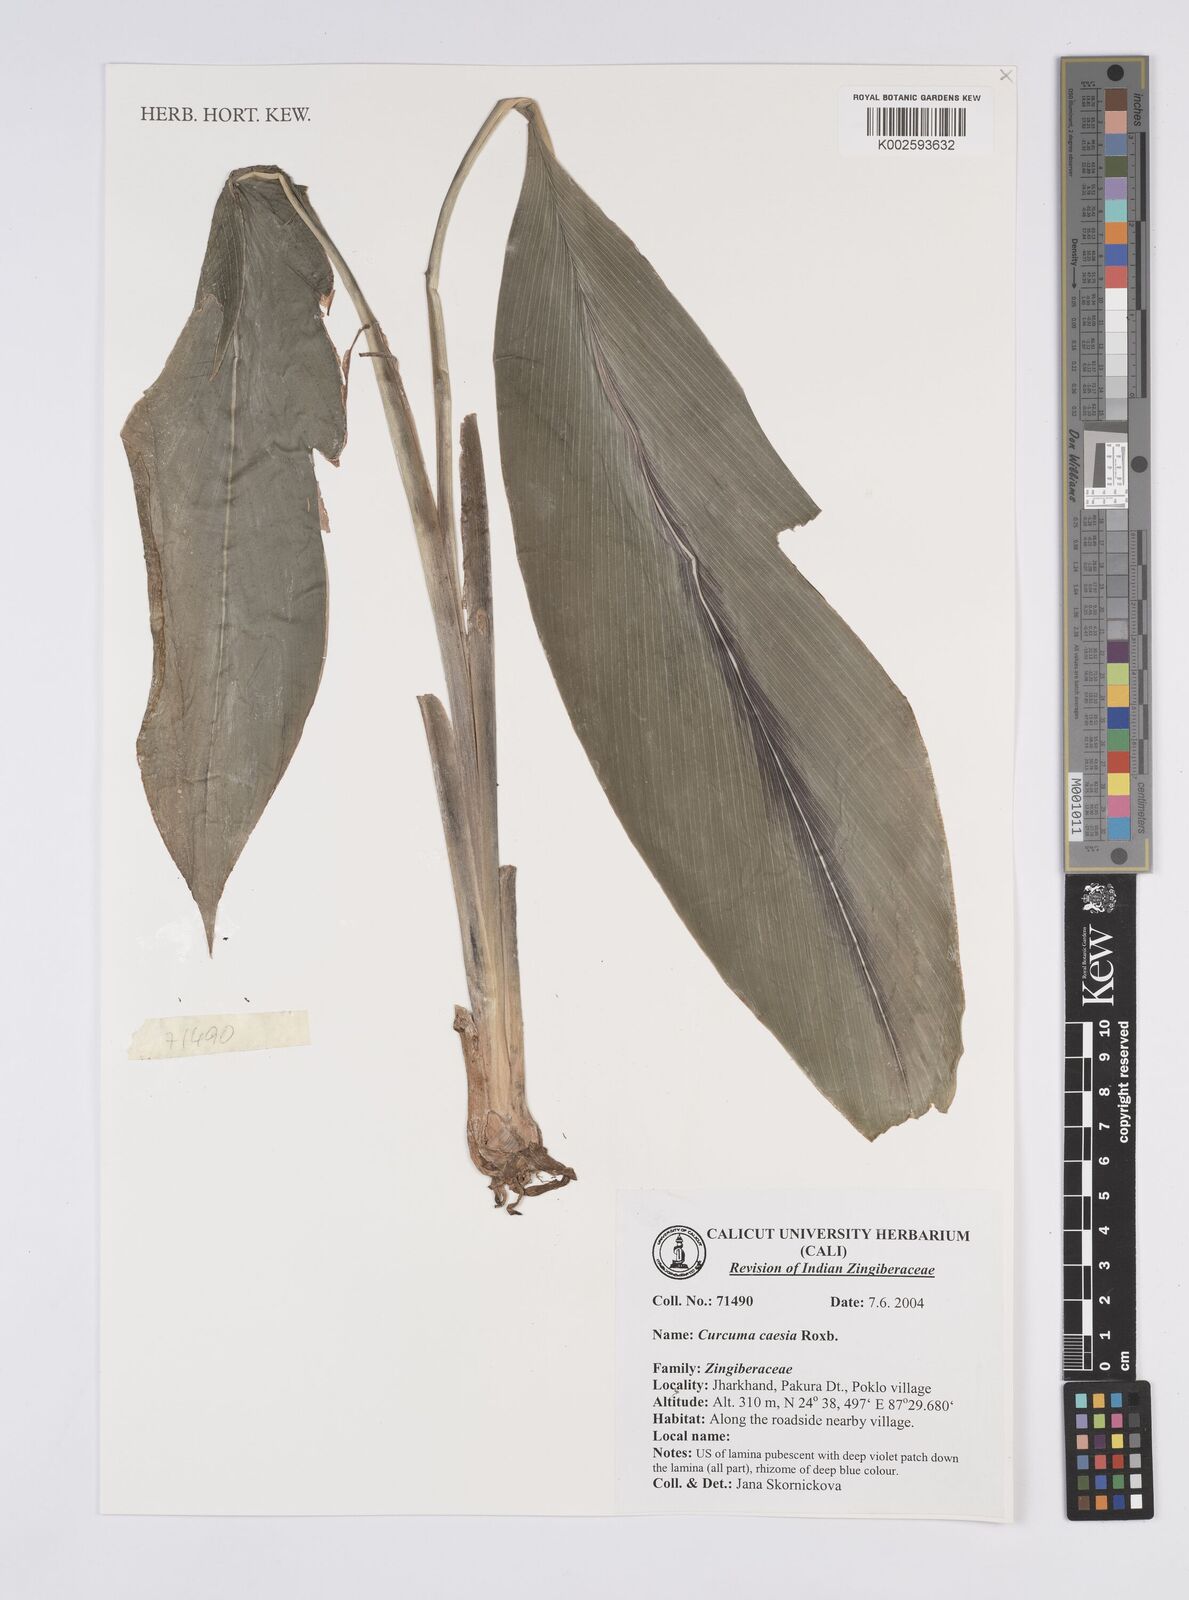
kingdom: Plantae
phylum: Tracheophyta
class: Liliopsida
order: Zingiberales
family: Zingiberaceae
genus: Curcuma
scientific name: Curcuma caesia
